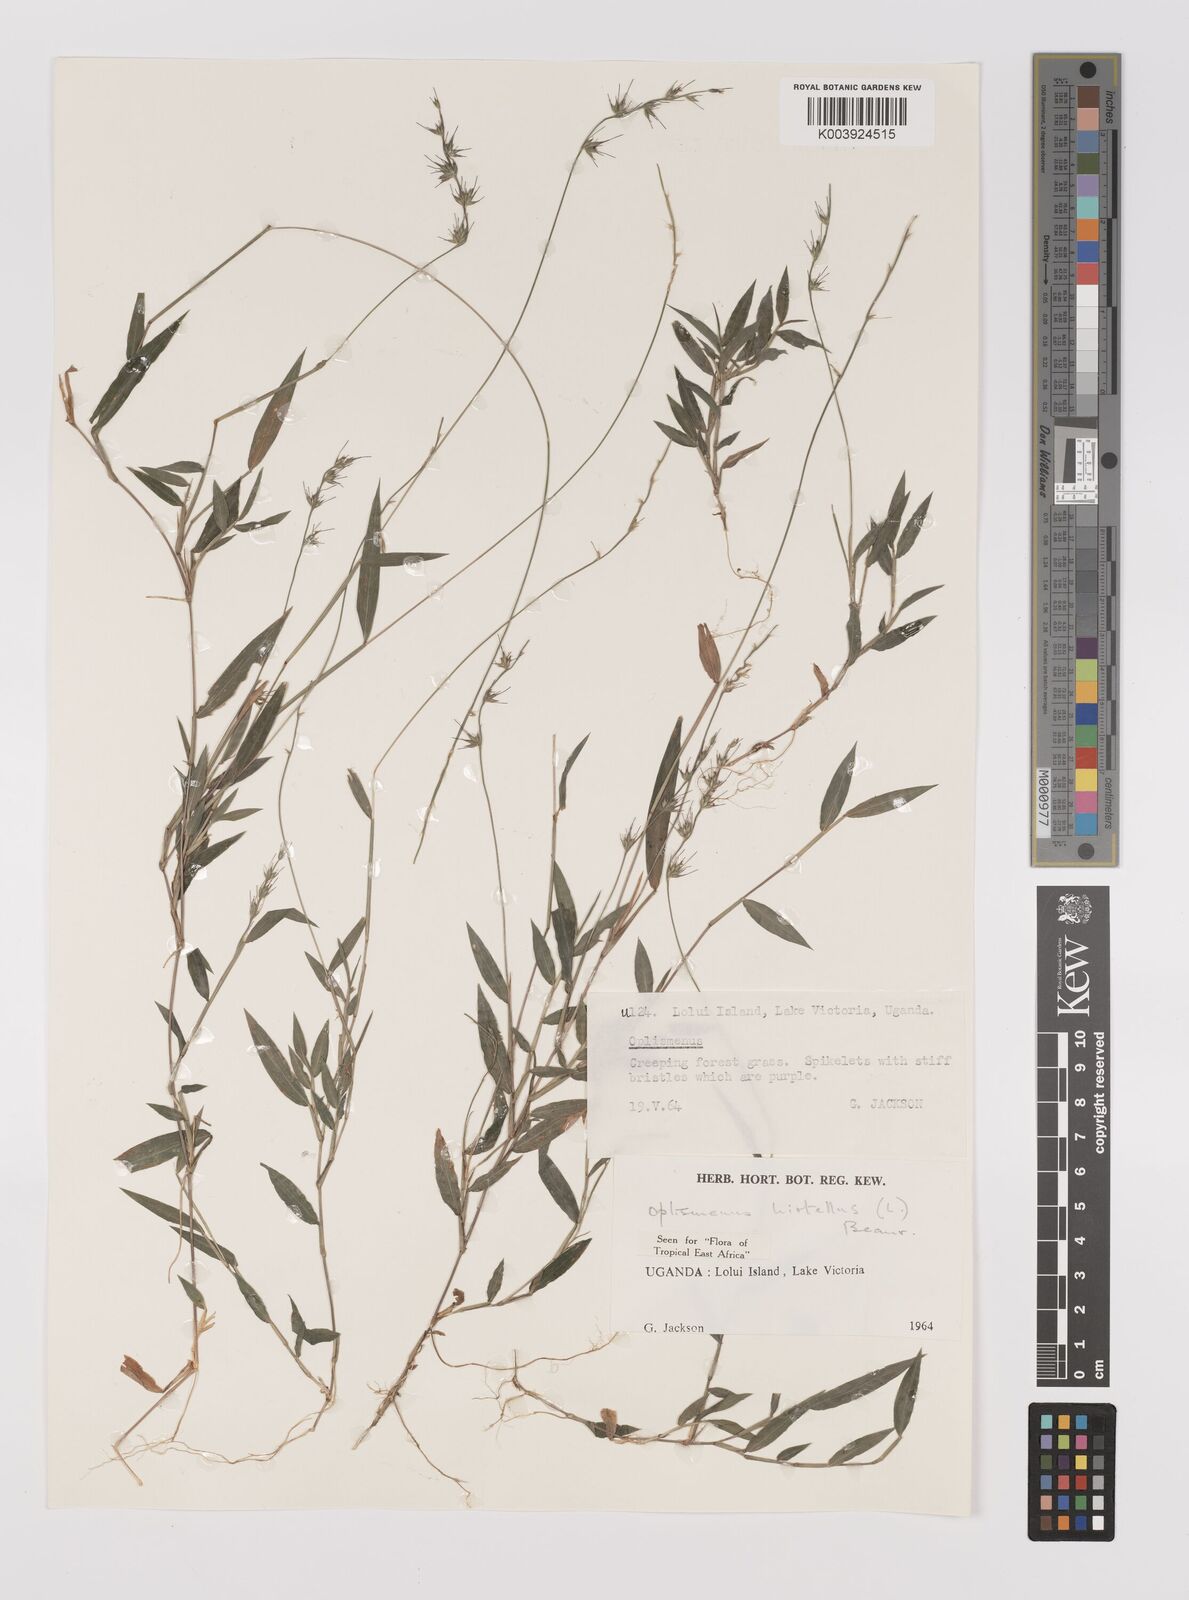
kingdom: Plantae
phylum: Tracheophyta
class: Liliopsida
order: Poales
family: Poaceae
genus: Oplismenus
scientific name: Oplismenus hirtellus
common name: Basketgrass
